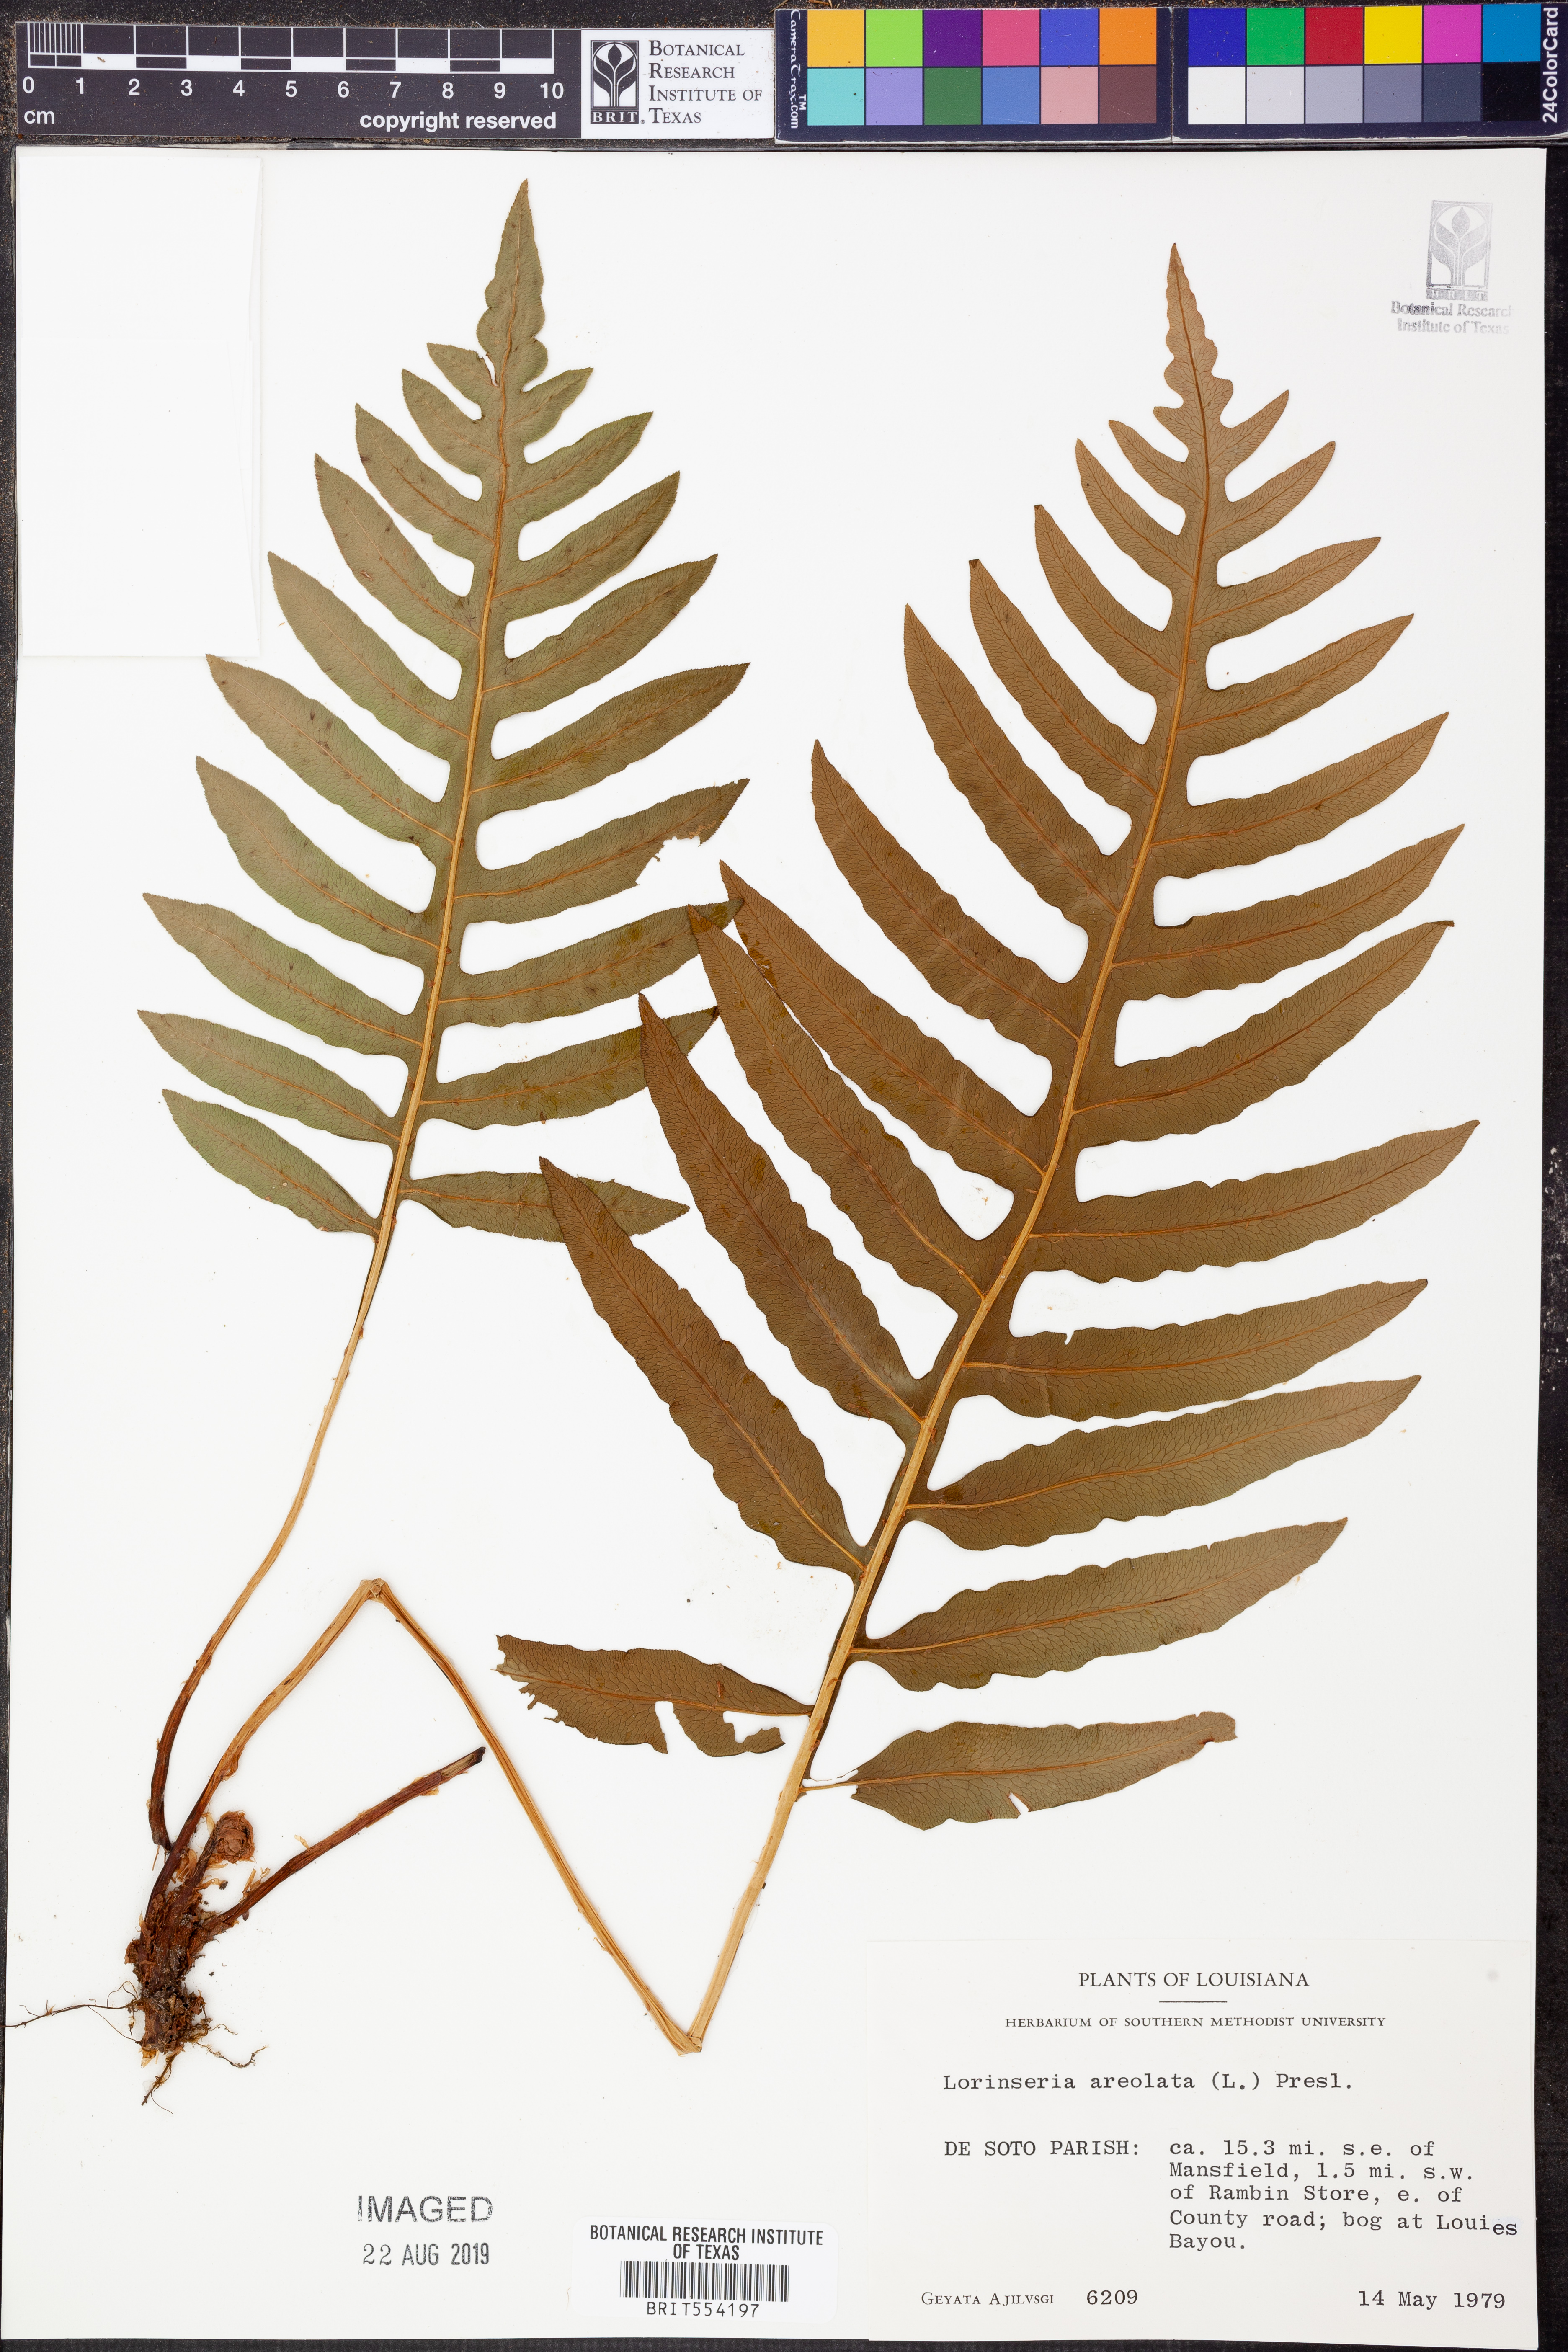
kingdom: Plantae
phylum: Tracheophyta
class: Polypodiopsida
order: Polypodiales
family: Blechnaceae
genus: Lorinseria
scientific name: Lorinseria areolata
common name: Dwarf chain fern
